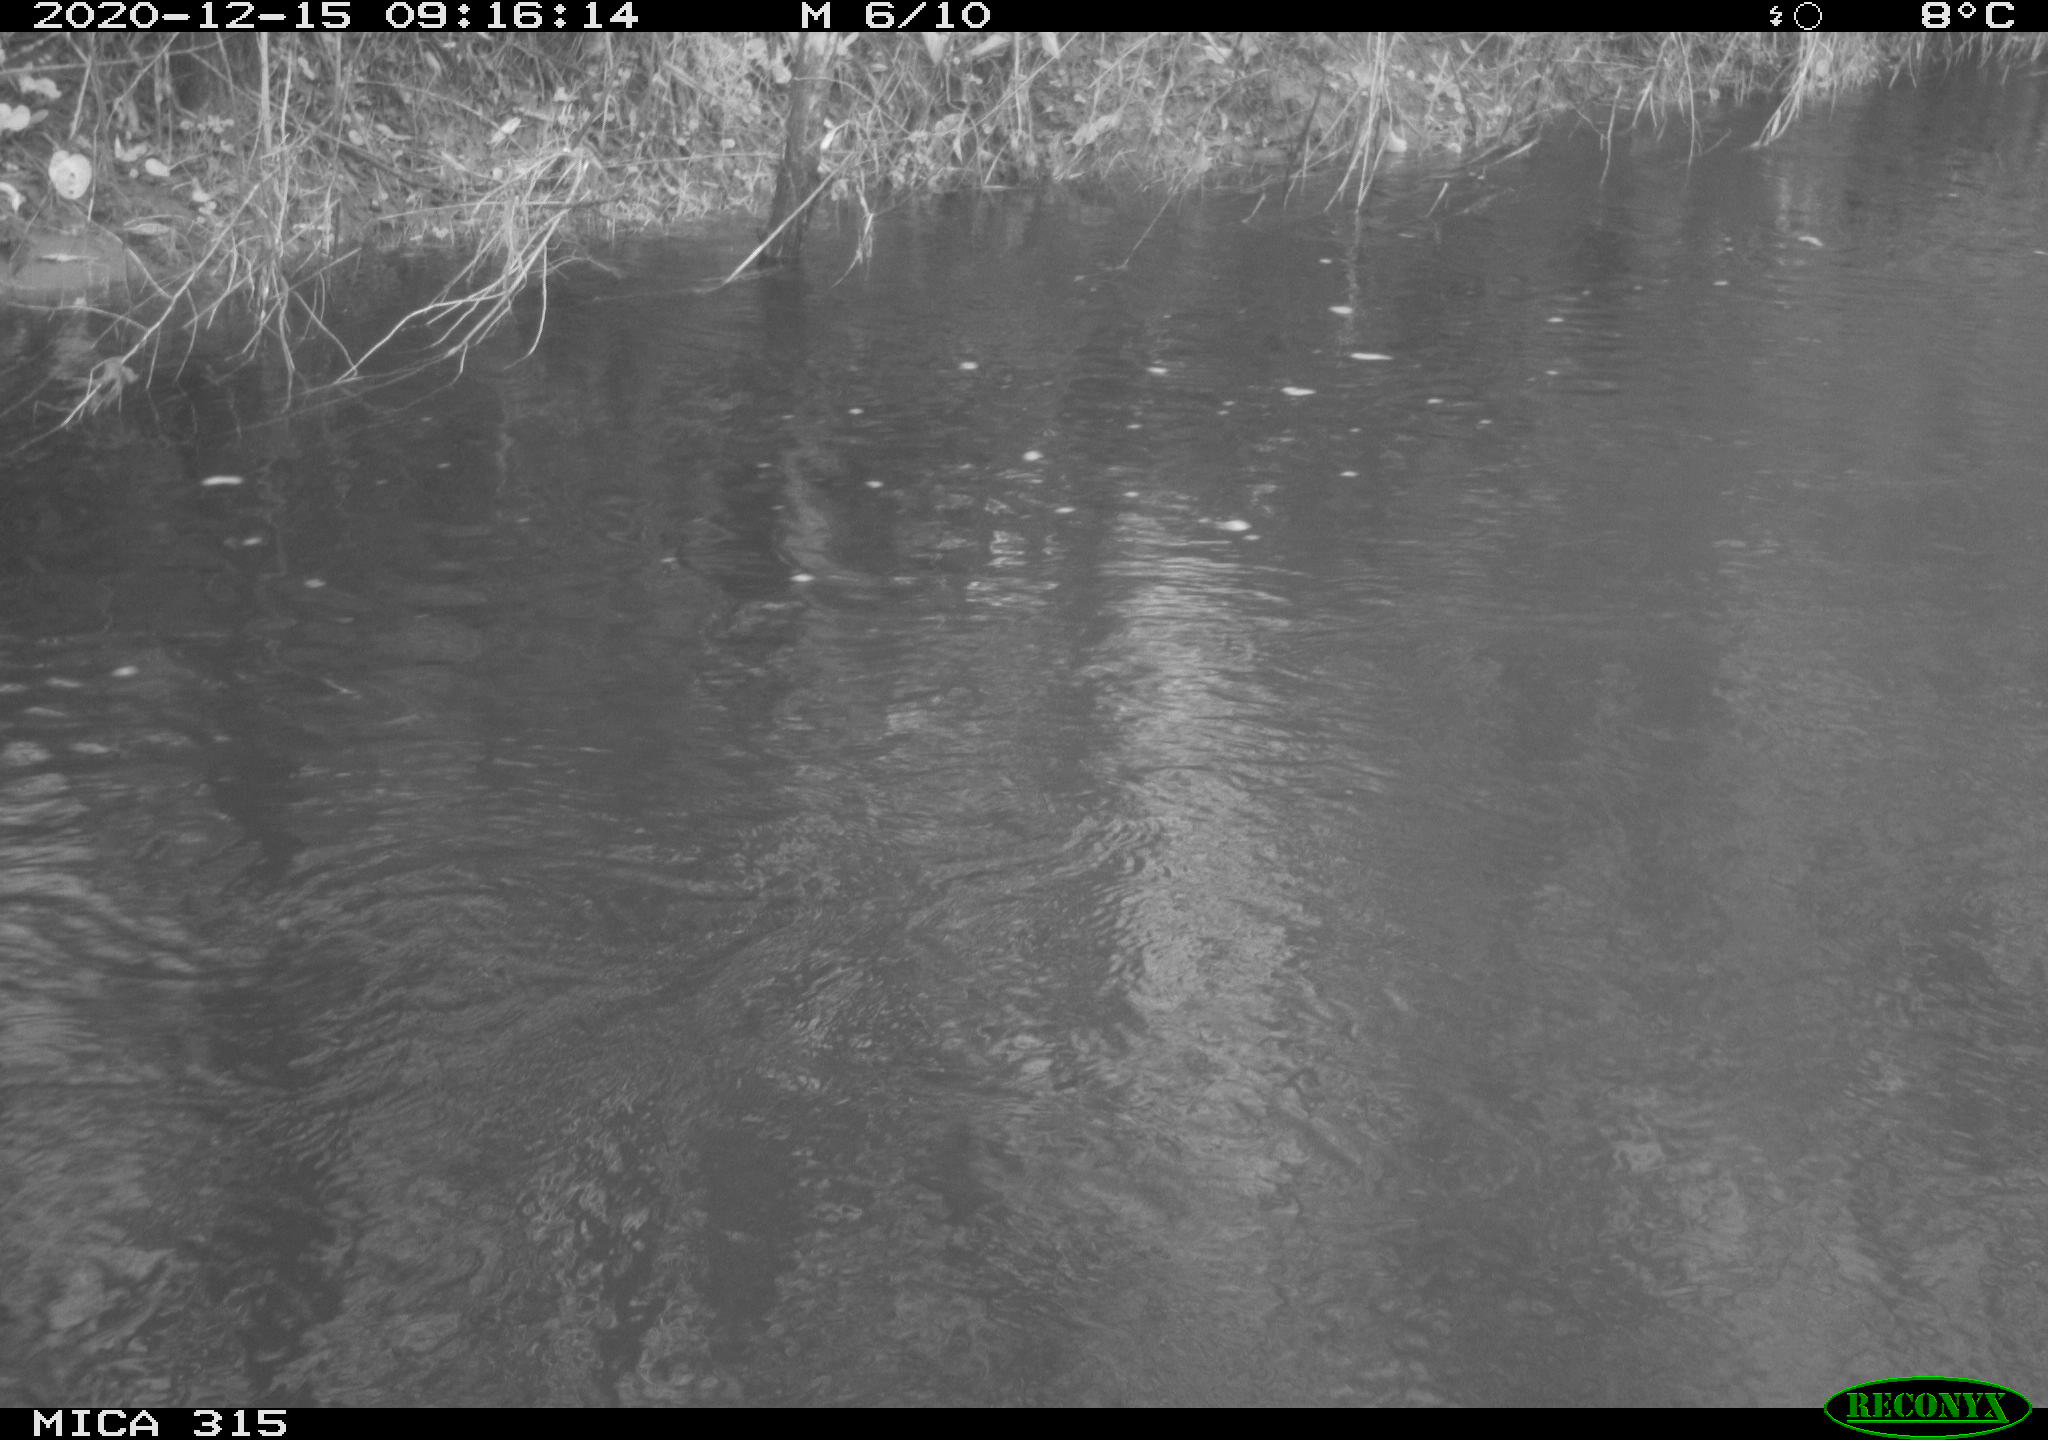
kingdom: Animalia
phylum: Chordata
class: Aves
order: Gruiformes
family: Rallidae
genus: Gallinula
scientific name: Gallinula chloropus
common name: Common moorhen
